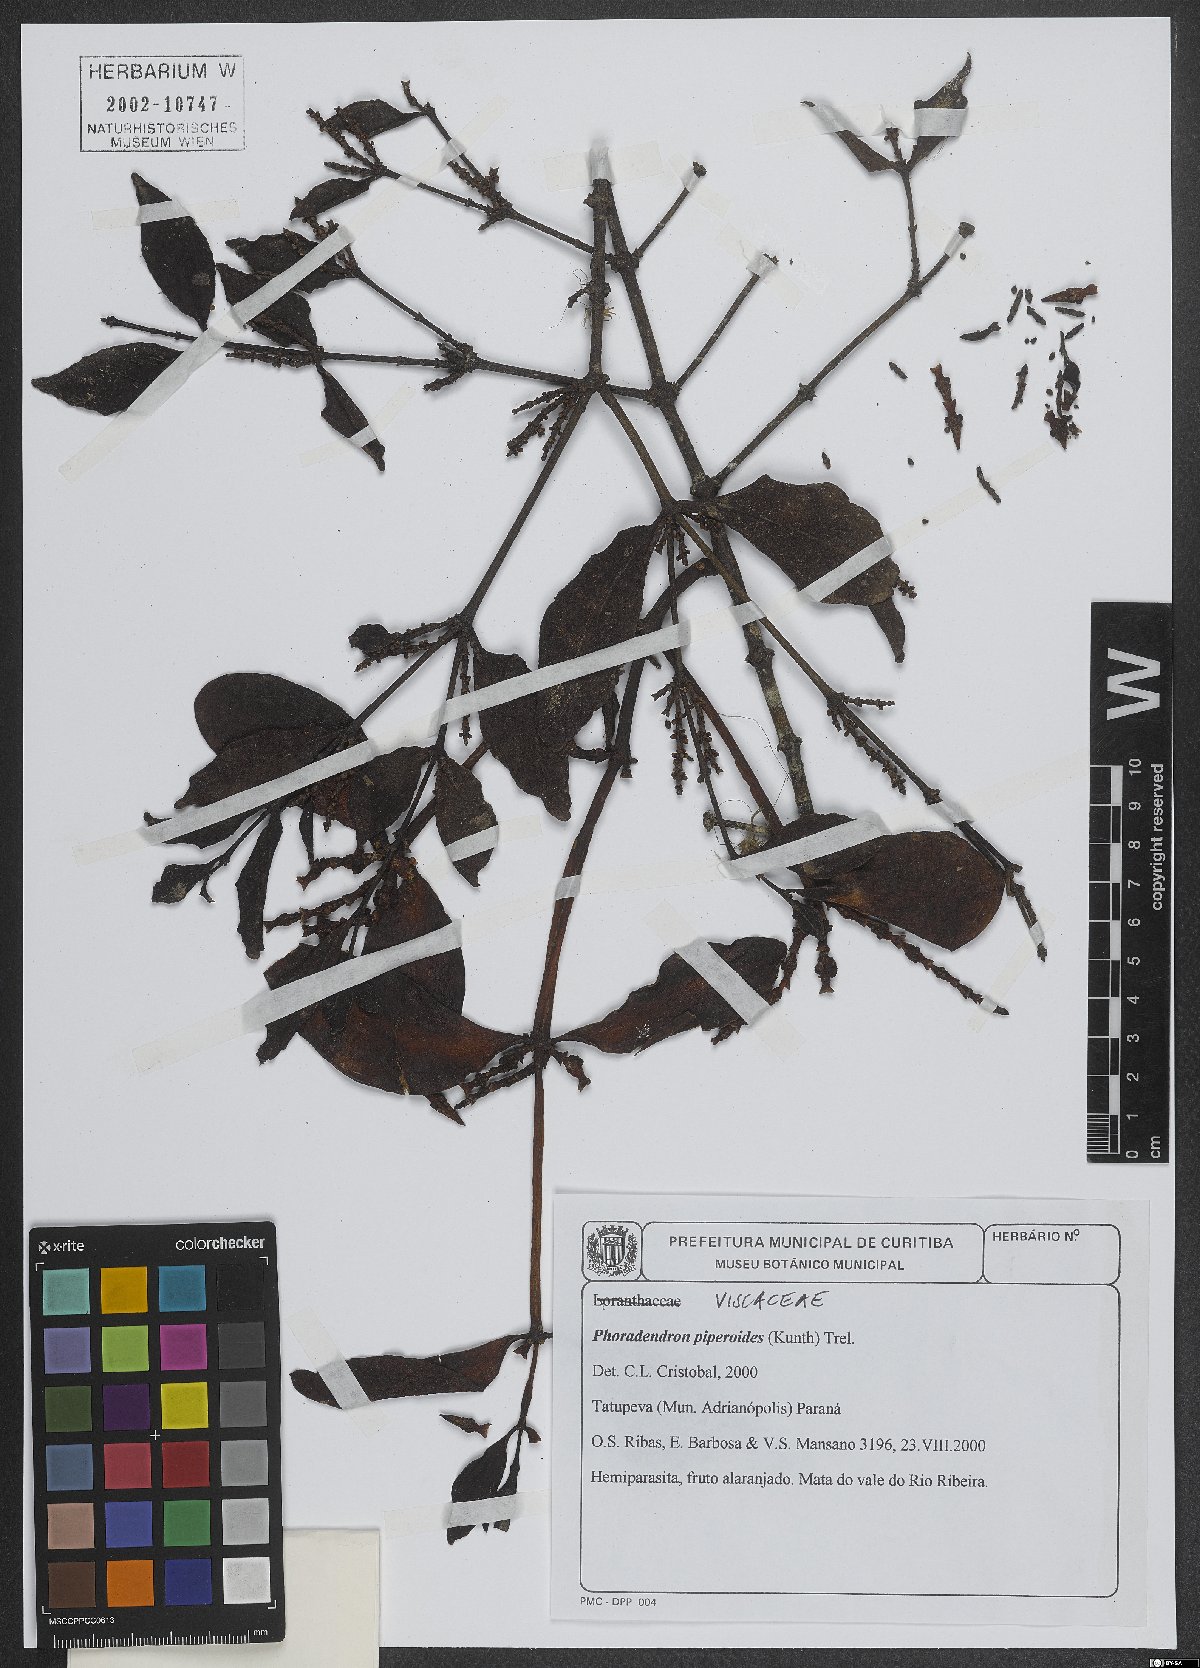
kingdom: Plantae
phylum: Tracheophyta
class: Magnoliopsida
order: Santalales
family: Viscaceae
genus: Phoradendron
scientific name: Phoradendron piperoides
